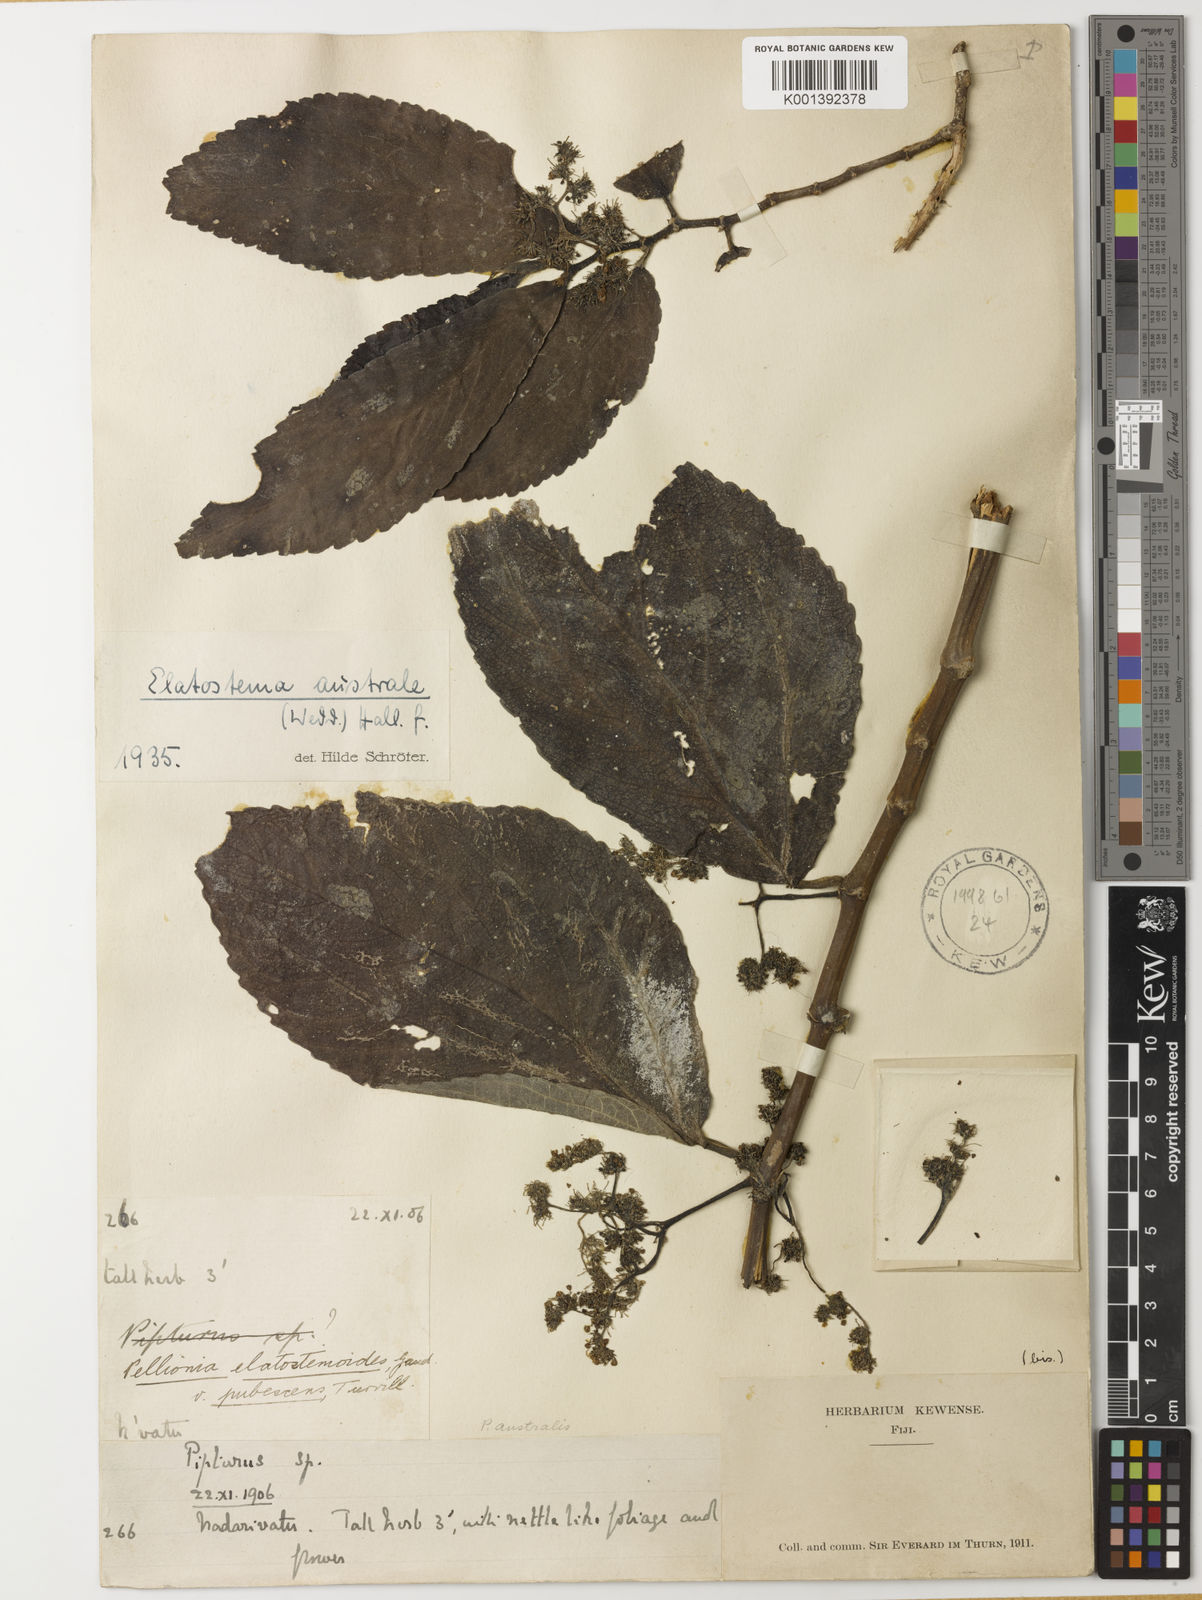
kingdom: Plantae
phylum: Tracheophyta
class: Magnoliopsida
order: Rosales
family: Urticaceae
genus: Elatostematoides
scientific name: Elatostematoides australe
